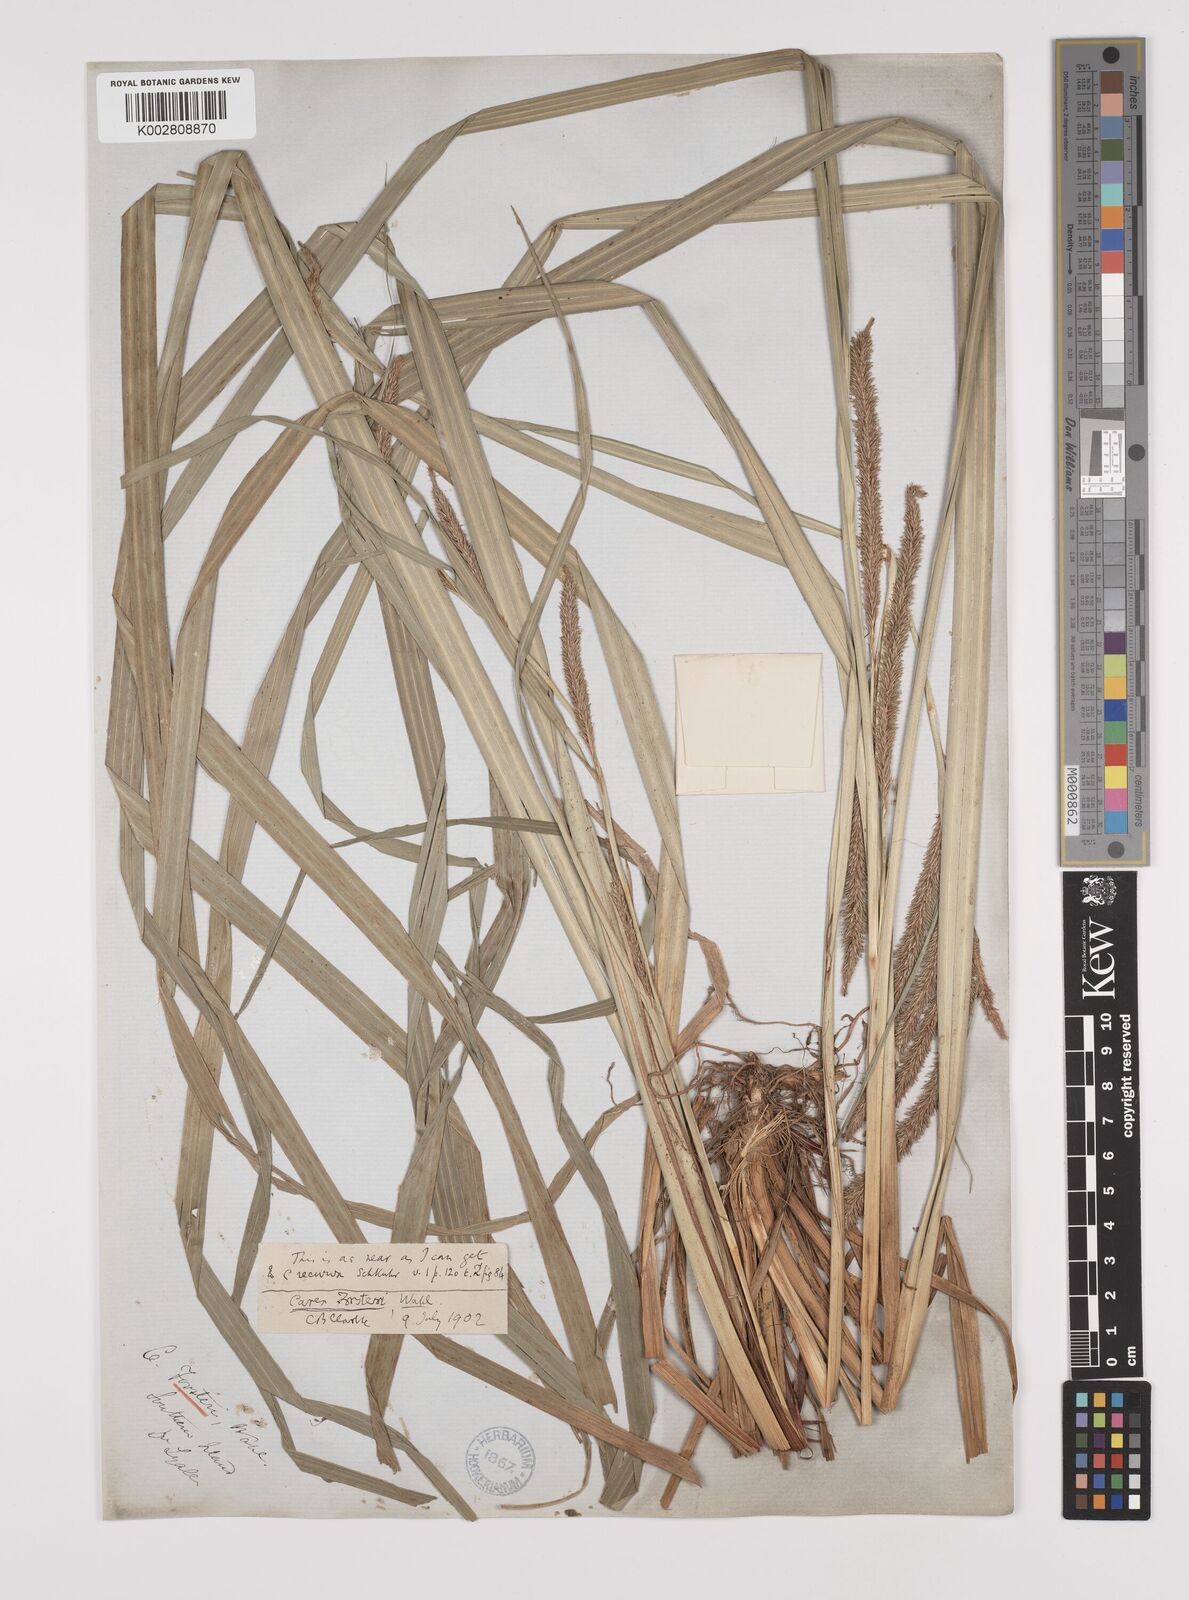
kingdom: Plantae
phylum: Tracheophyta
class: Liliopsida
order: Poales
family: Cyperaceae
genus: Carex
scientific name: Carex forsteri
